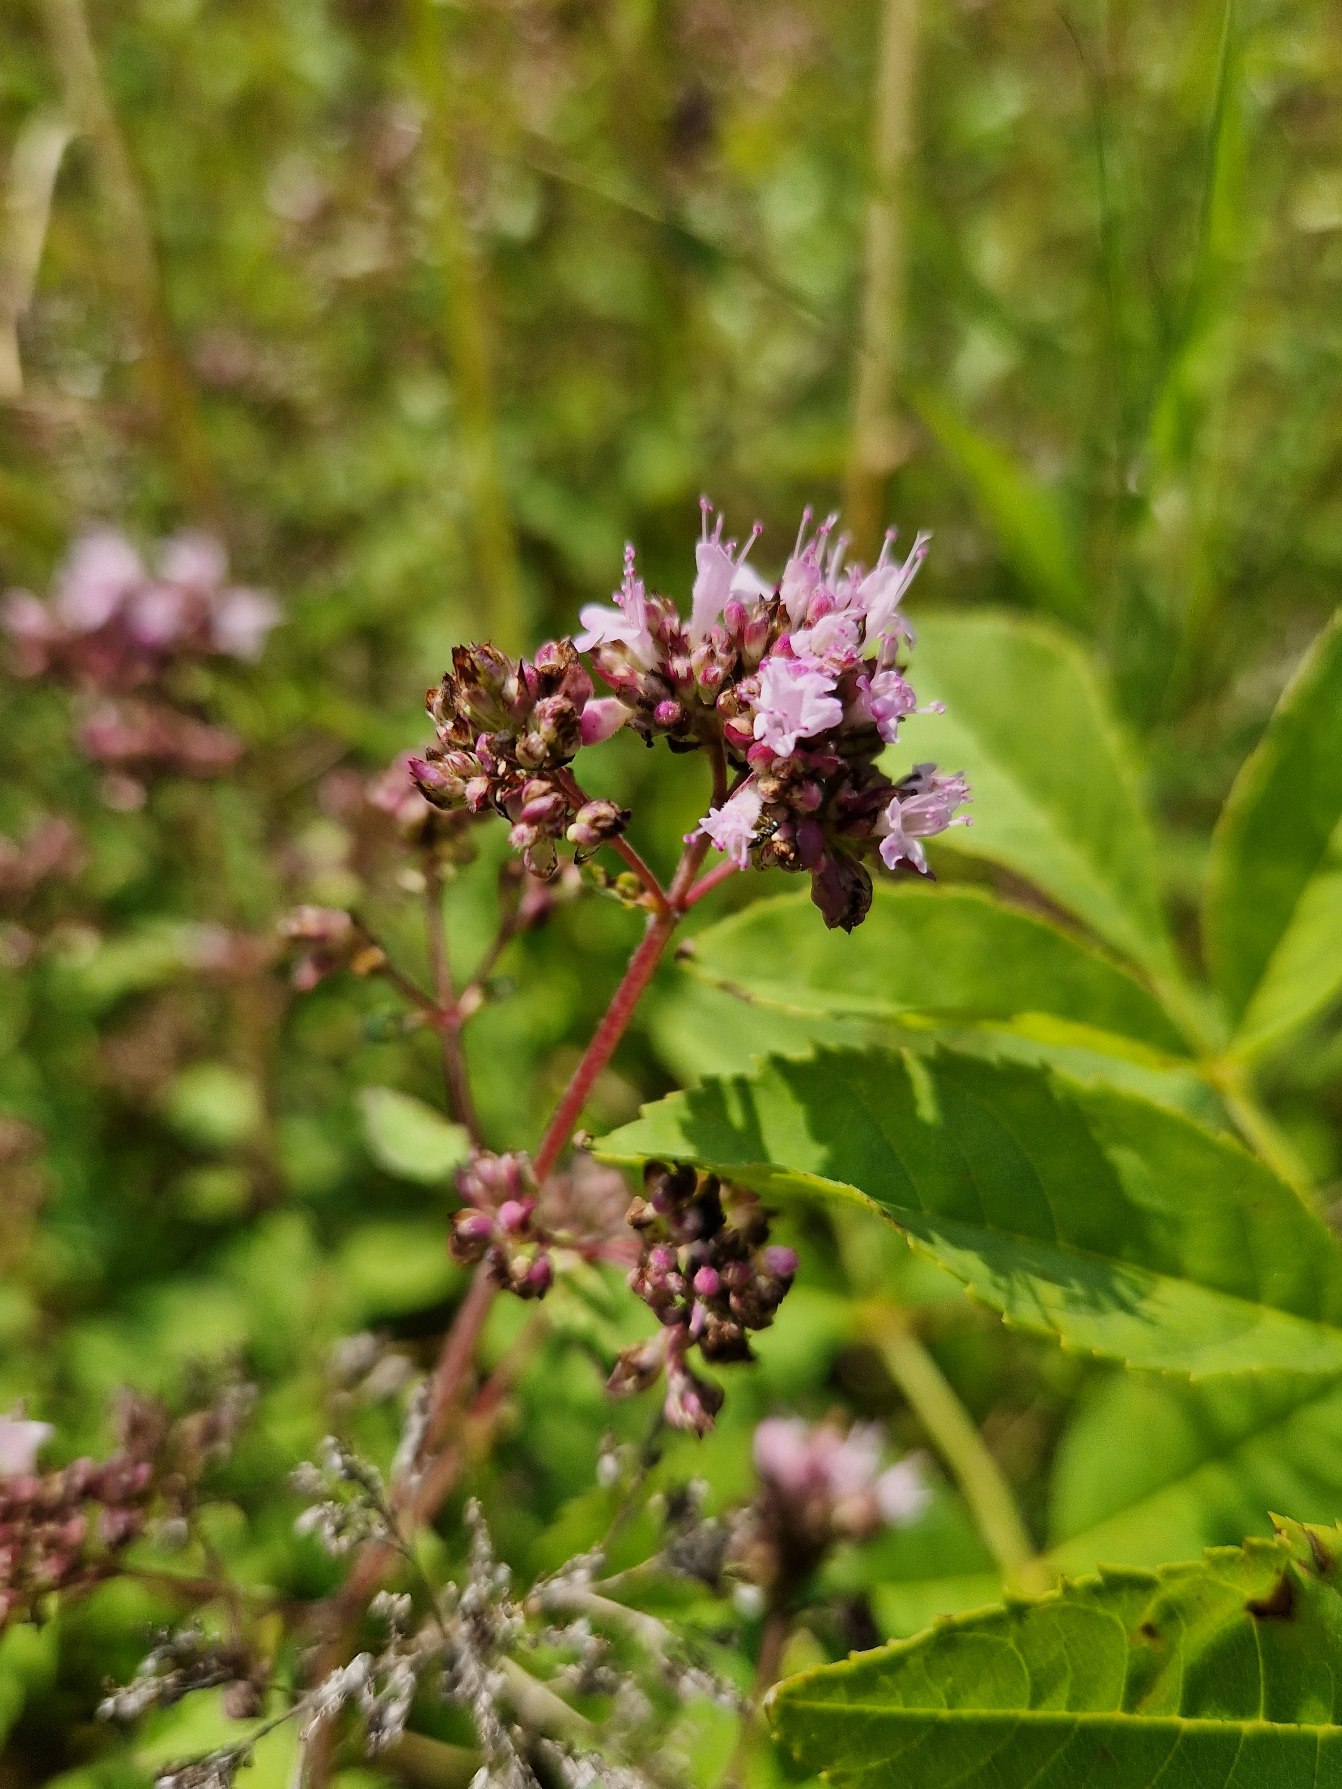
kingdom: Plantae
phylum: Tracheophyta
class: Magnoliopsida
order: Lamiales
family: Lamiaceae
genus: Origanum
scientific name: Origanum vulgare
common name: Merian
